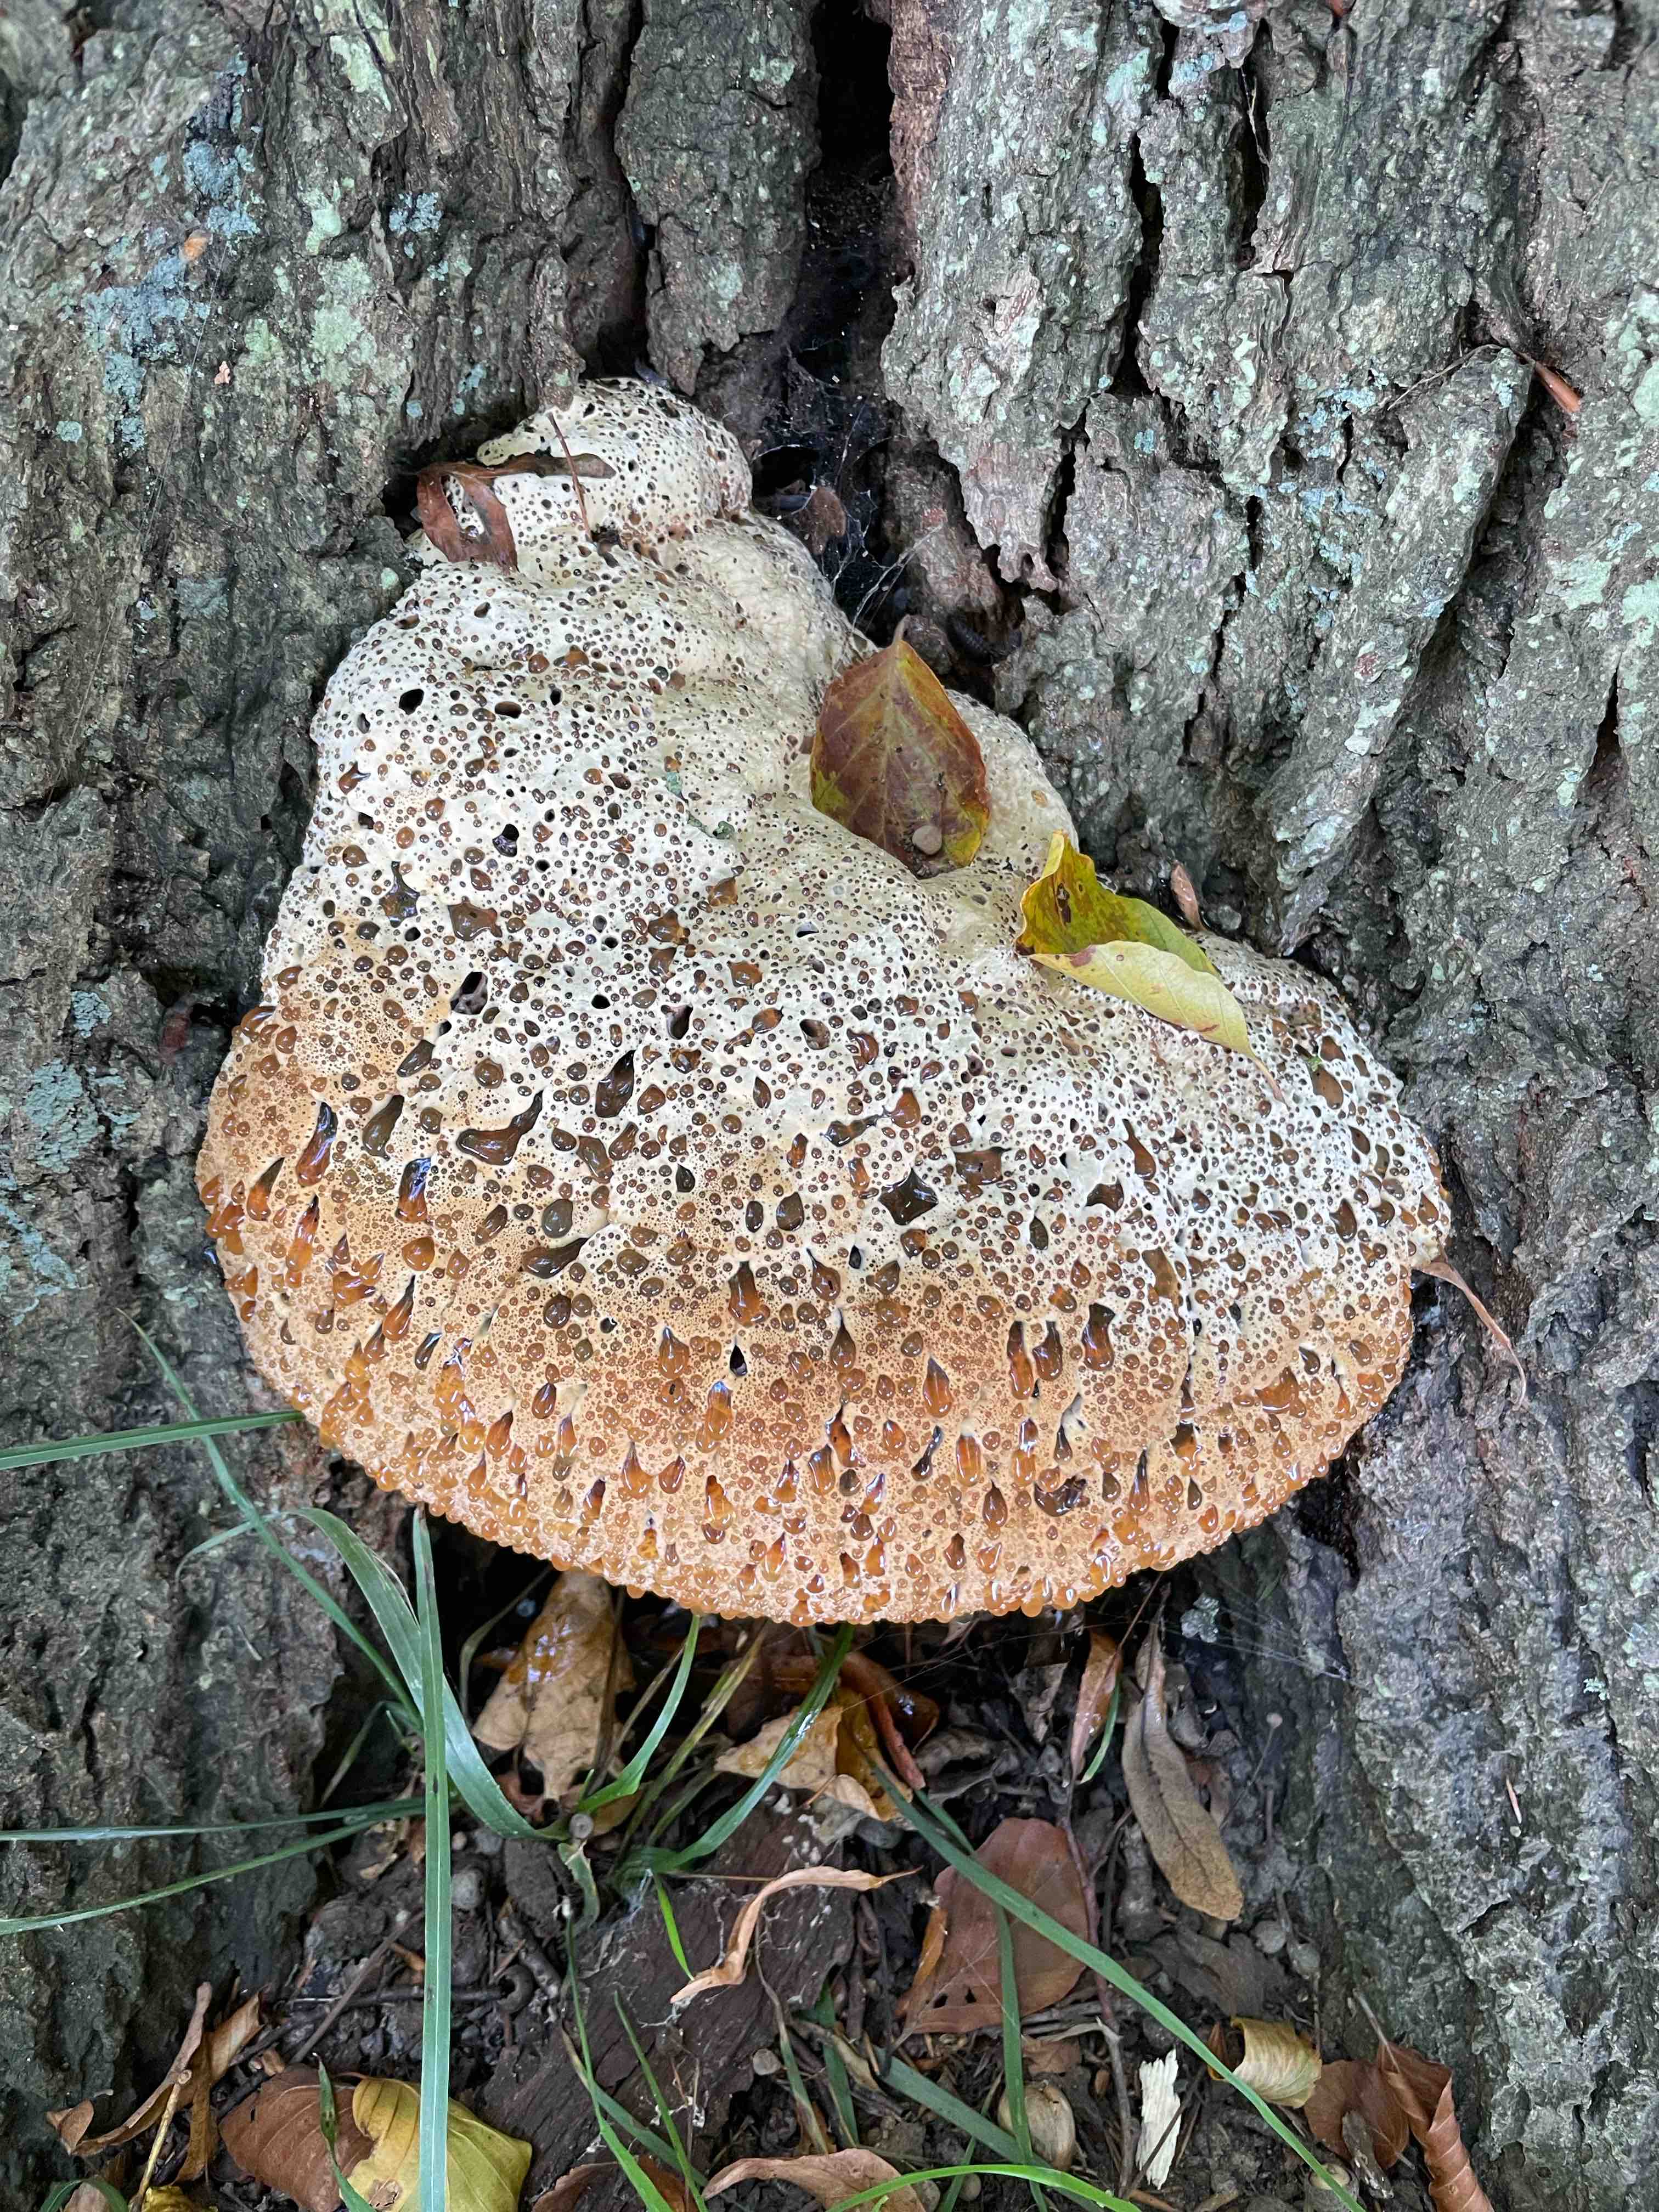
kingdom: Fungi
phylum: Basidiomycota
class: Agaricomycetes
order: Hymenochaetales
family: Hymenochaetaceae
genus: Pseudoinonotus
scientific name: Pseudoinonotus dryadeus
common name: ege-spejlporesvamp
